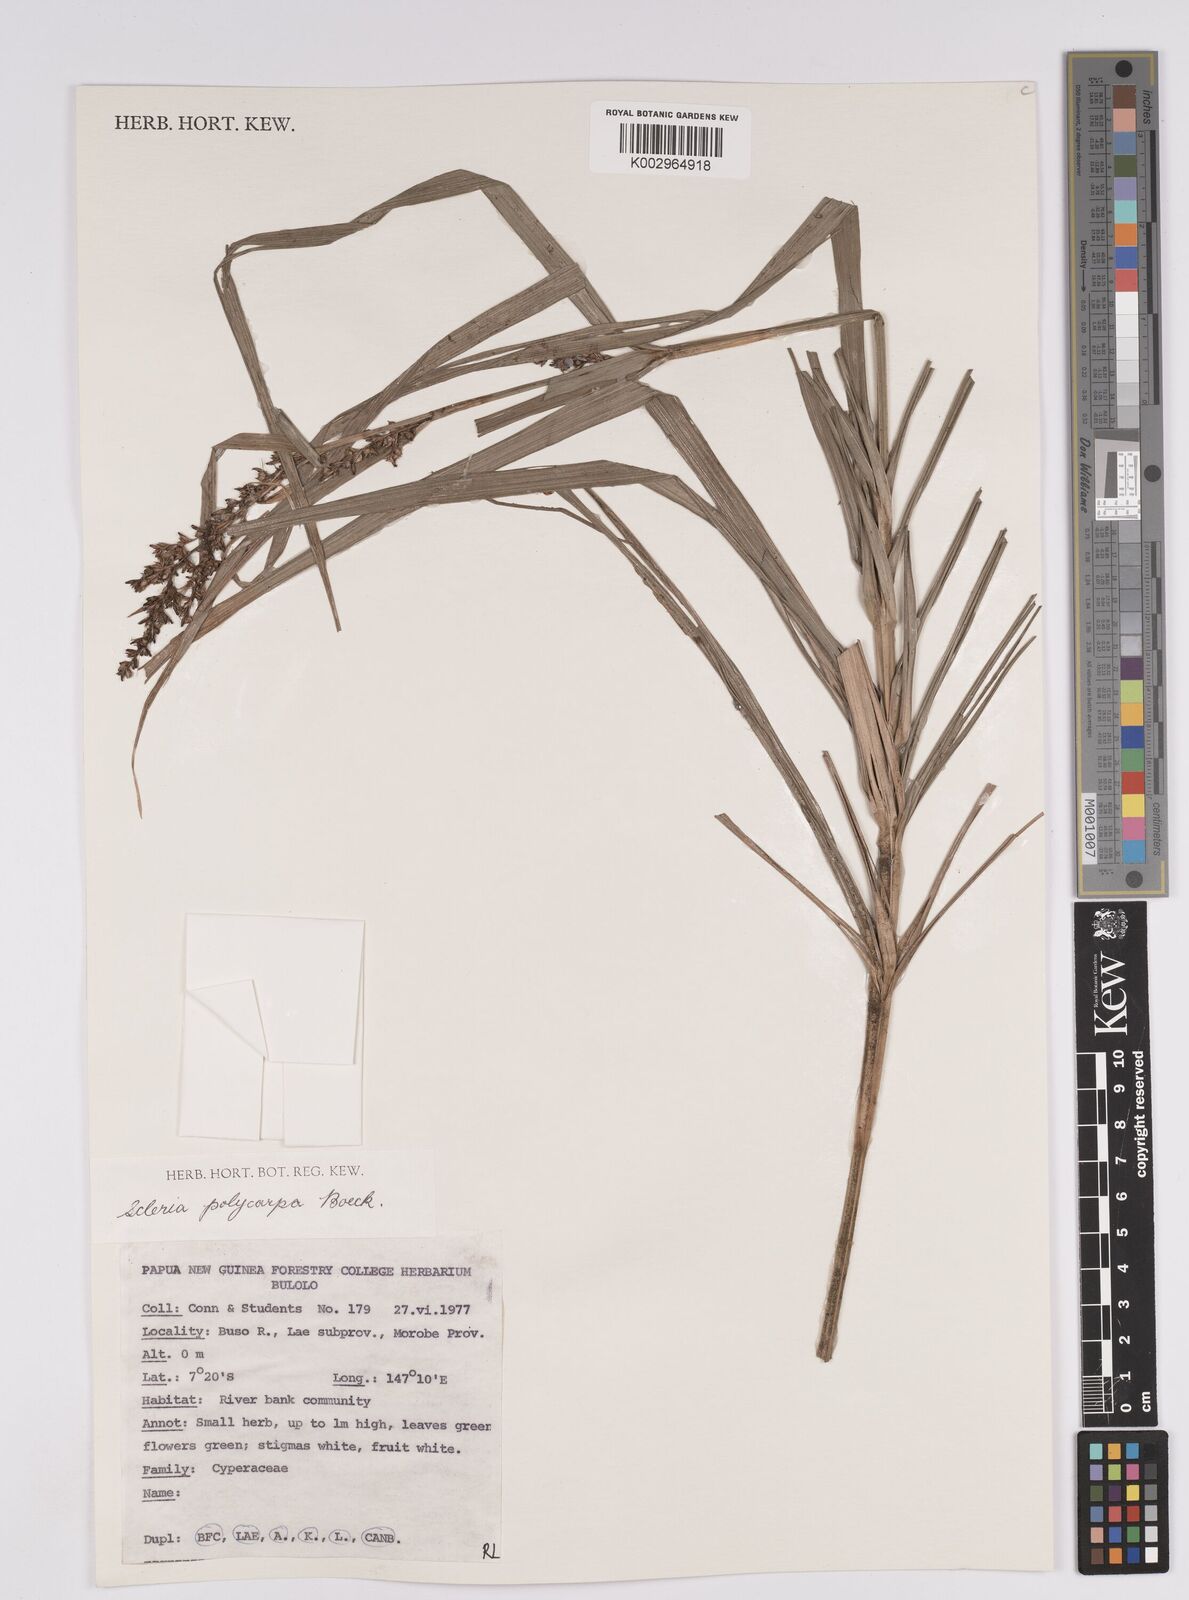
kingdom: Plantae
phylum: Tracheophyta
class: Liliopsida
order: Poales
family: Cyperaceae
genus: Scleria
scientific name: Scleria polycarpa
